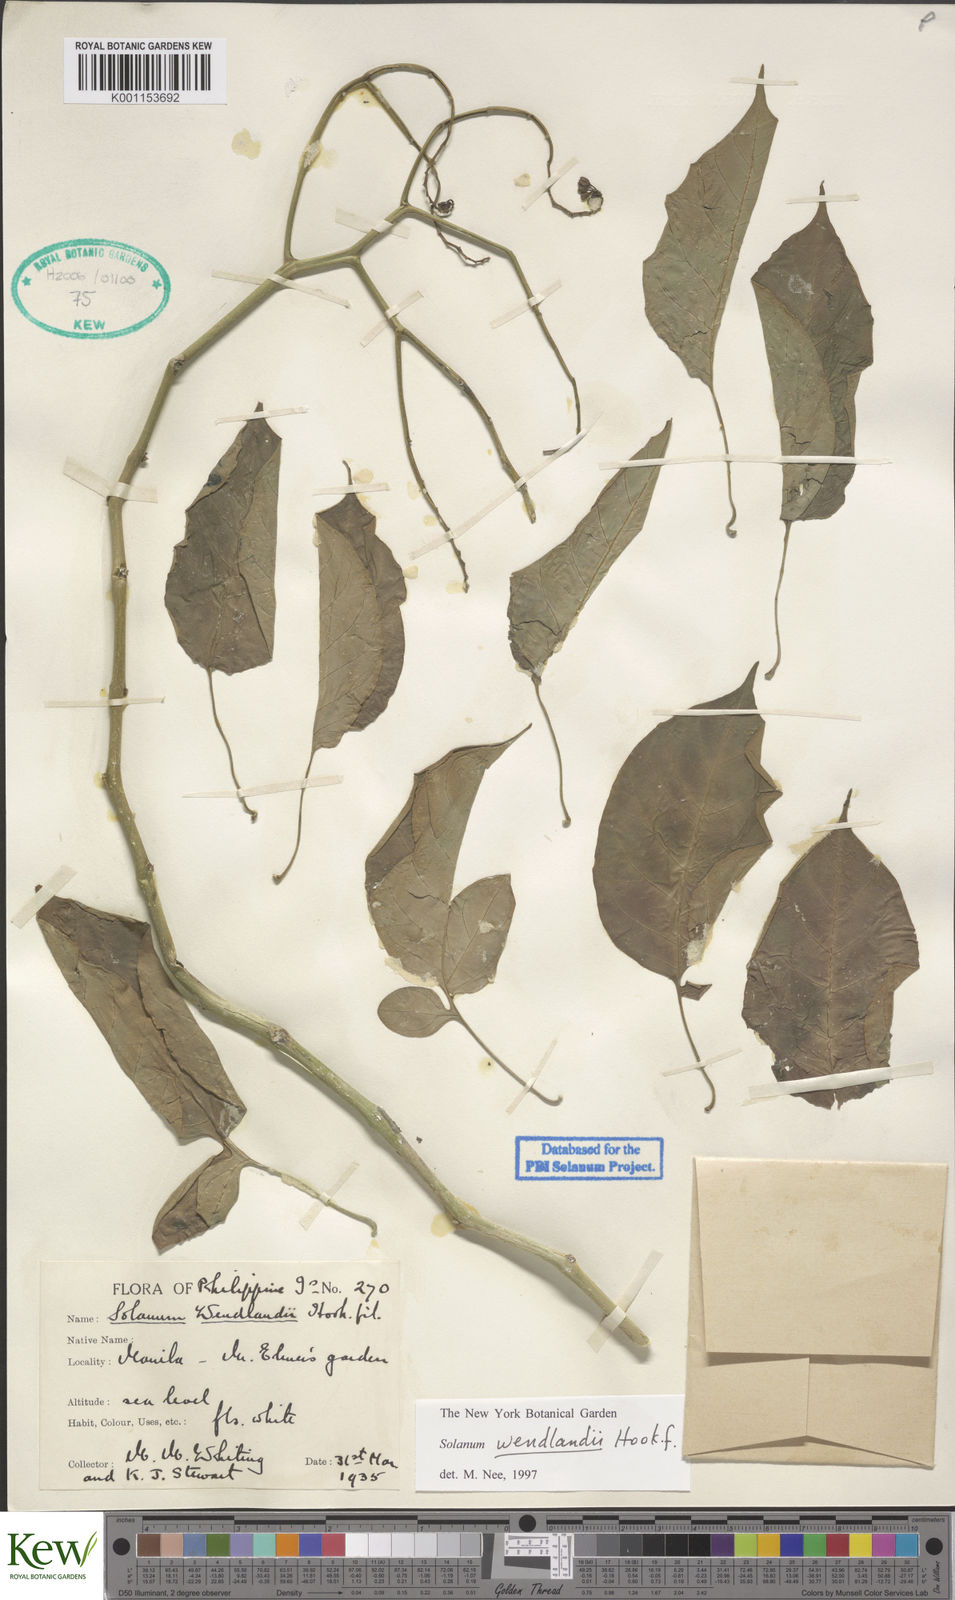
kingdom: Plantae
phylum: Tracheophyta
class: Magnoliopsida
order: Solanales
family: Solanaceae
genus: Solanum
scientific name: Solanum wendlandii
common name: Costa rican nightshade
